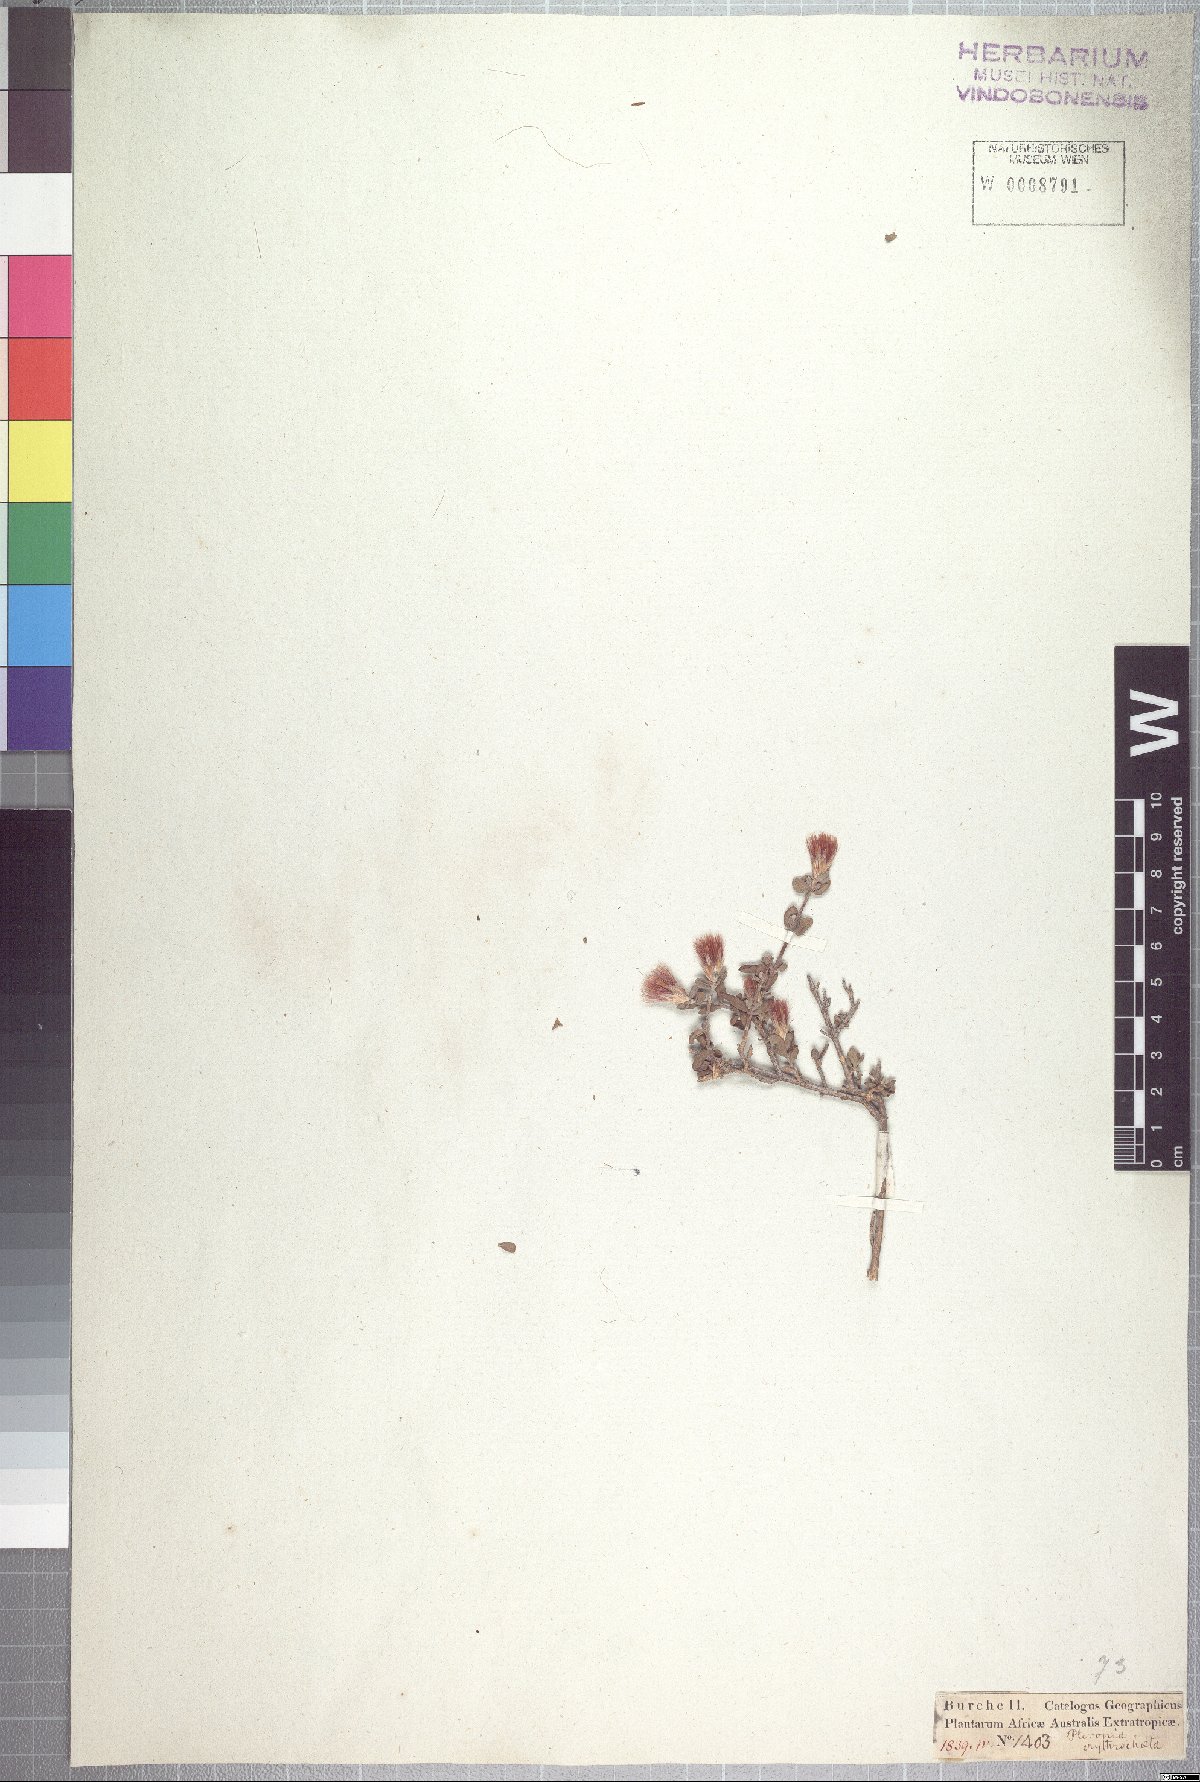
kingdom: Plantae
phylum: Tracheophyta
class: Magnoliopsida
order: Asterales
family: Asteraceae
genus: Pteronia
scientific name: Pteronia erythrochaeta
